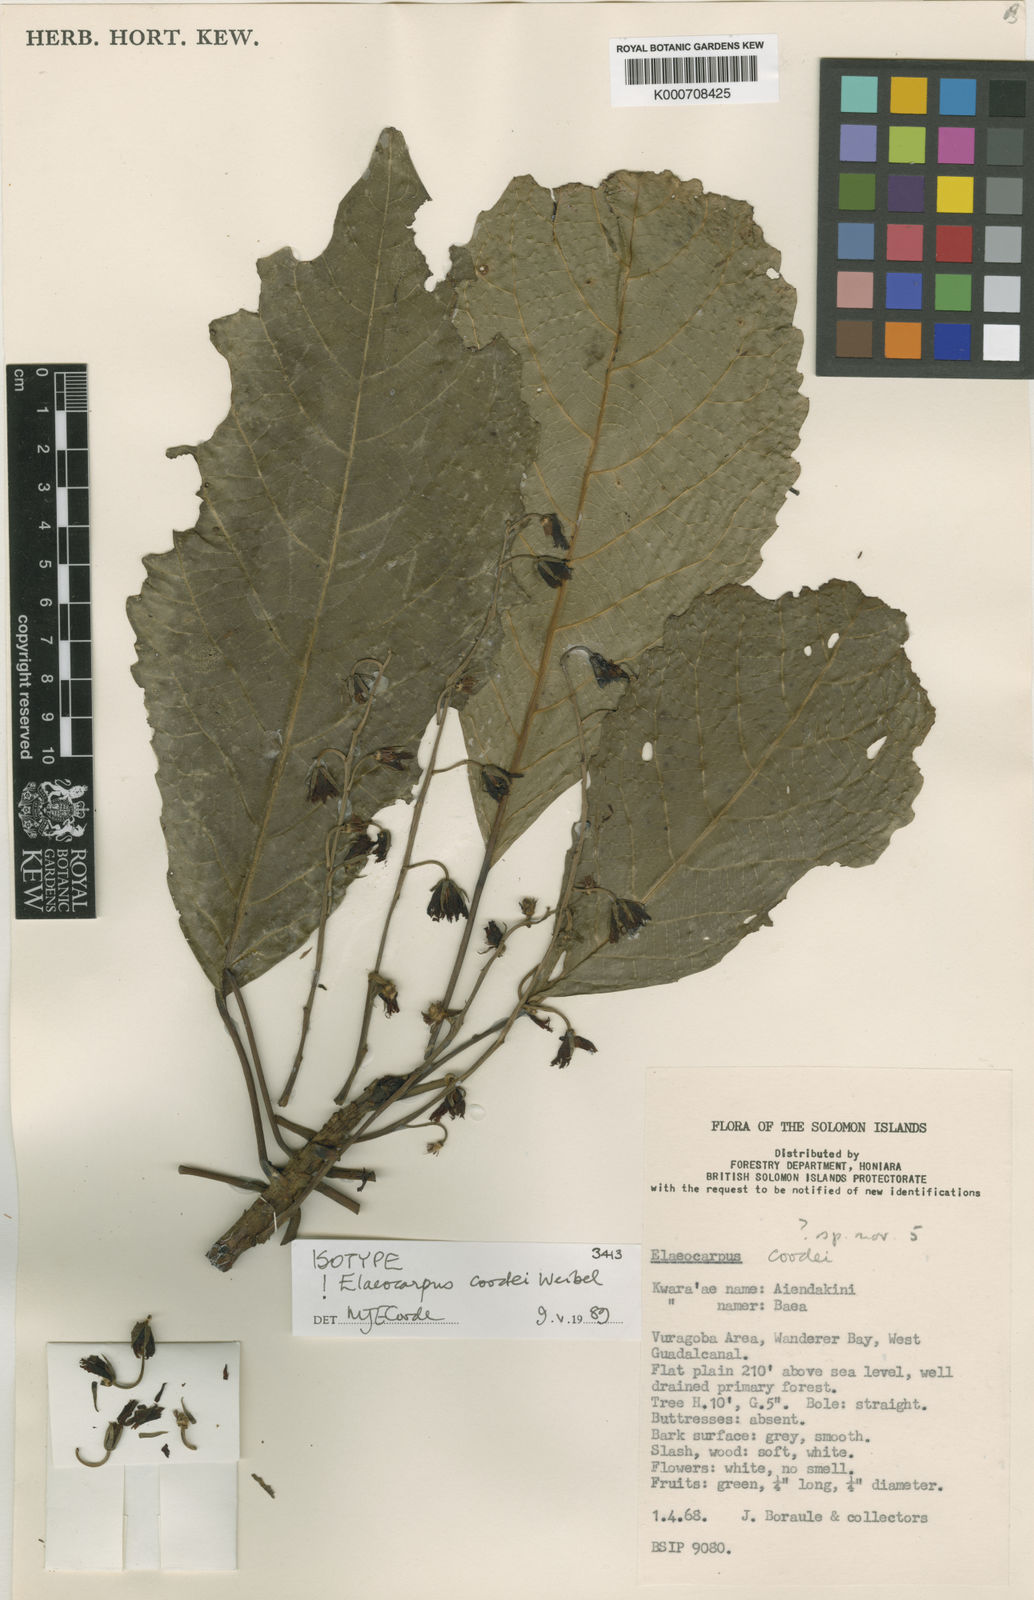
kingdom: Plantae
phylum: Tracheophyta
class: Magnoliopsida
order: Oxalidales
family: Elaeocarpaceae
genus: Elaeocarpus
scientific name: Elaeocarpus coodei
